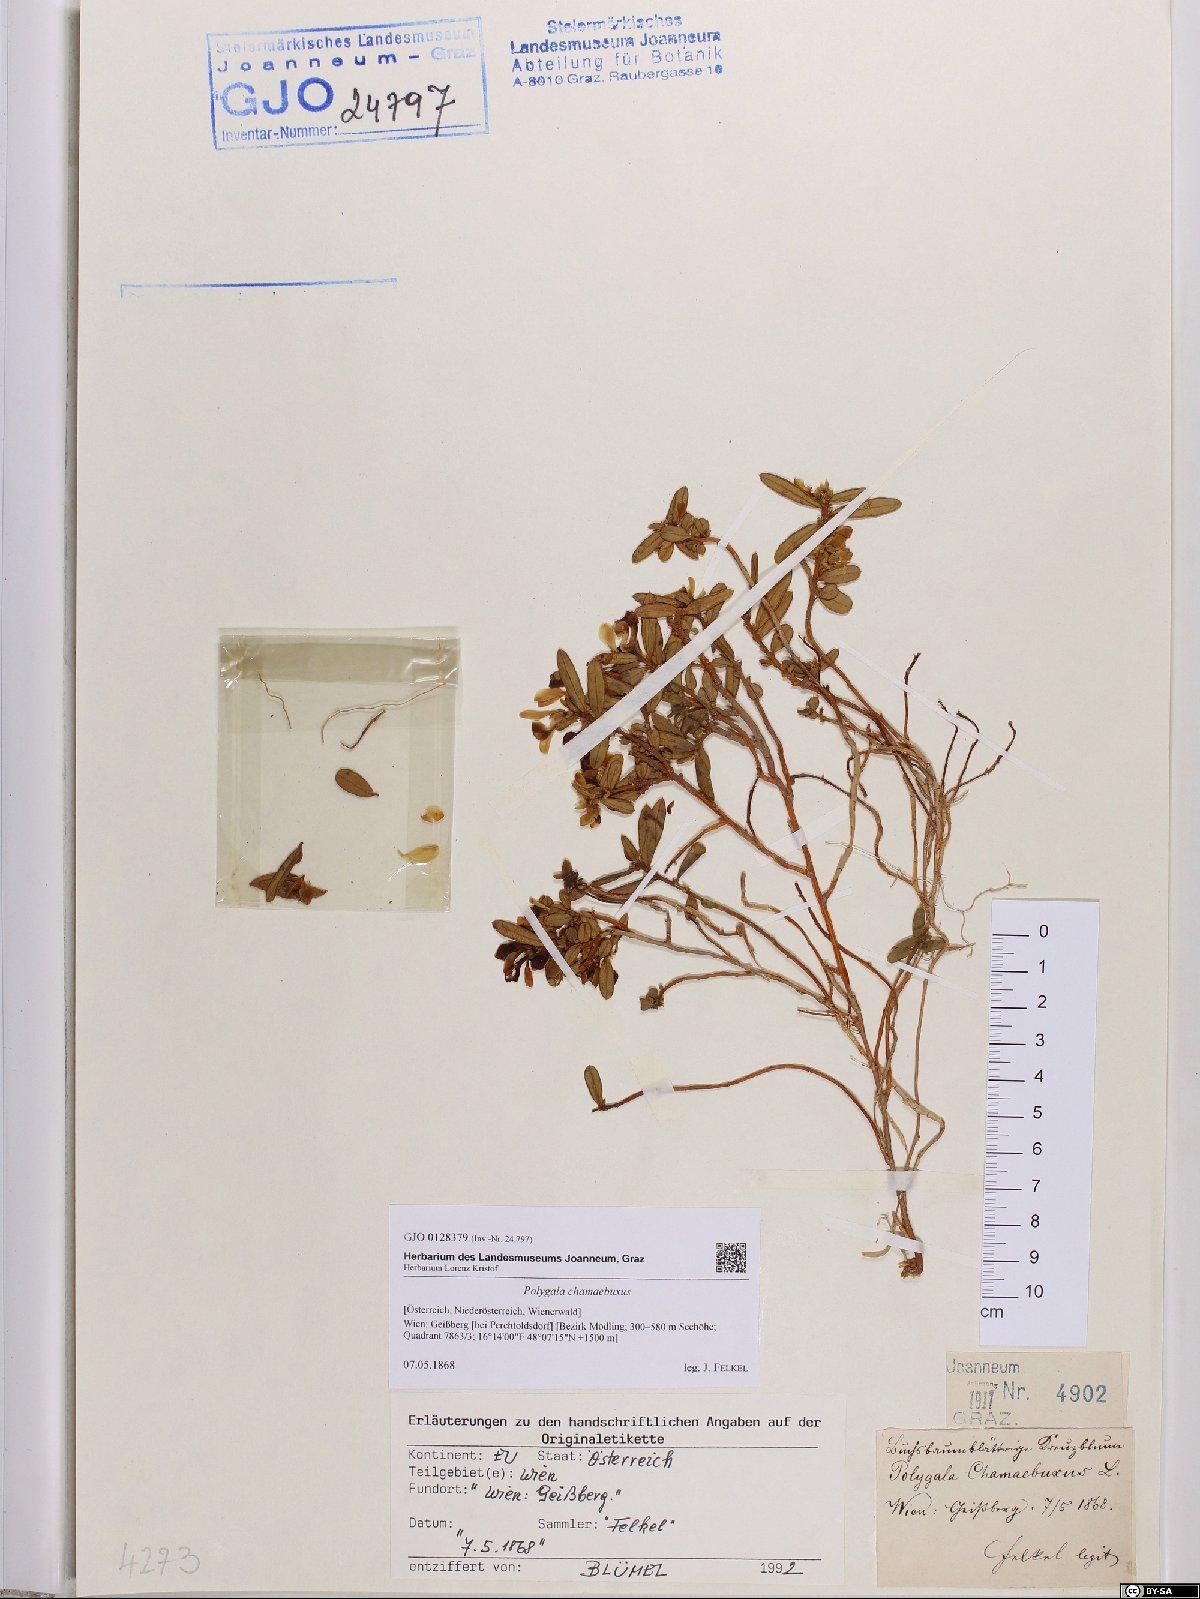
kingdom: Plantae
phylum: Tracheophyta
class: Magnoliopsida
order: Fabales
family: Polygalaceae
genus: Polygaloides
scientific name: Polygaloides chamaebuxus
